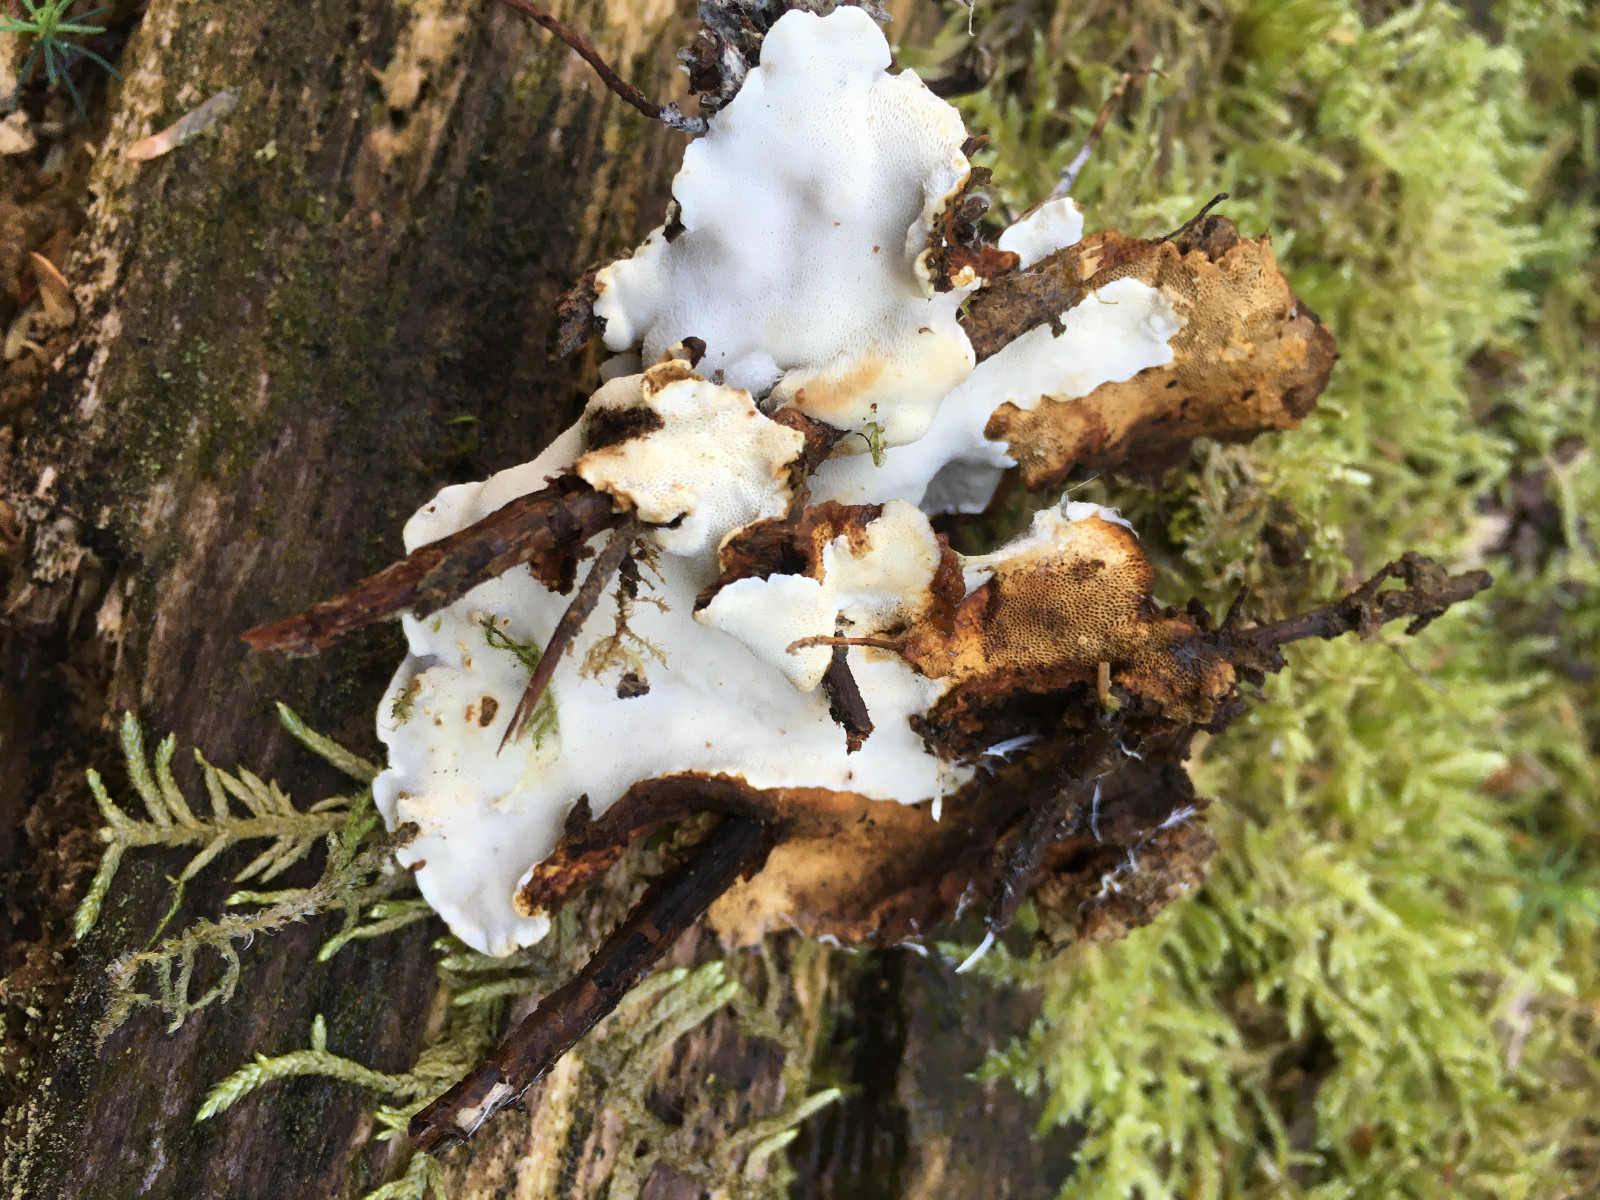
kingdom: Fungi
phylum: Basidiomycota
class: Agaricomycetes
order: Russulales
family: Bondarzewiaceae
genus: Heterobasidion
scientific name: Heterobasidion
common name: rodfordærver
